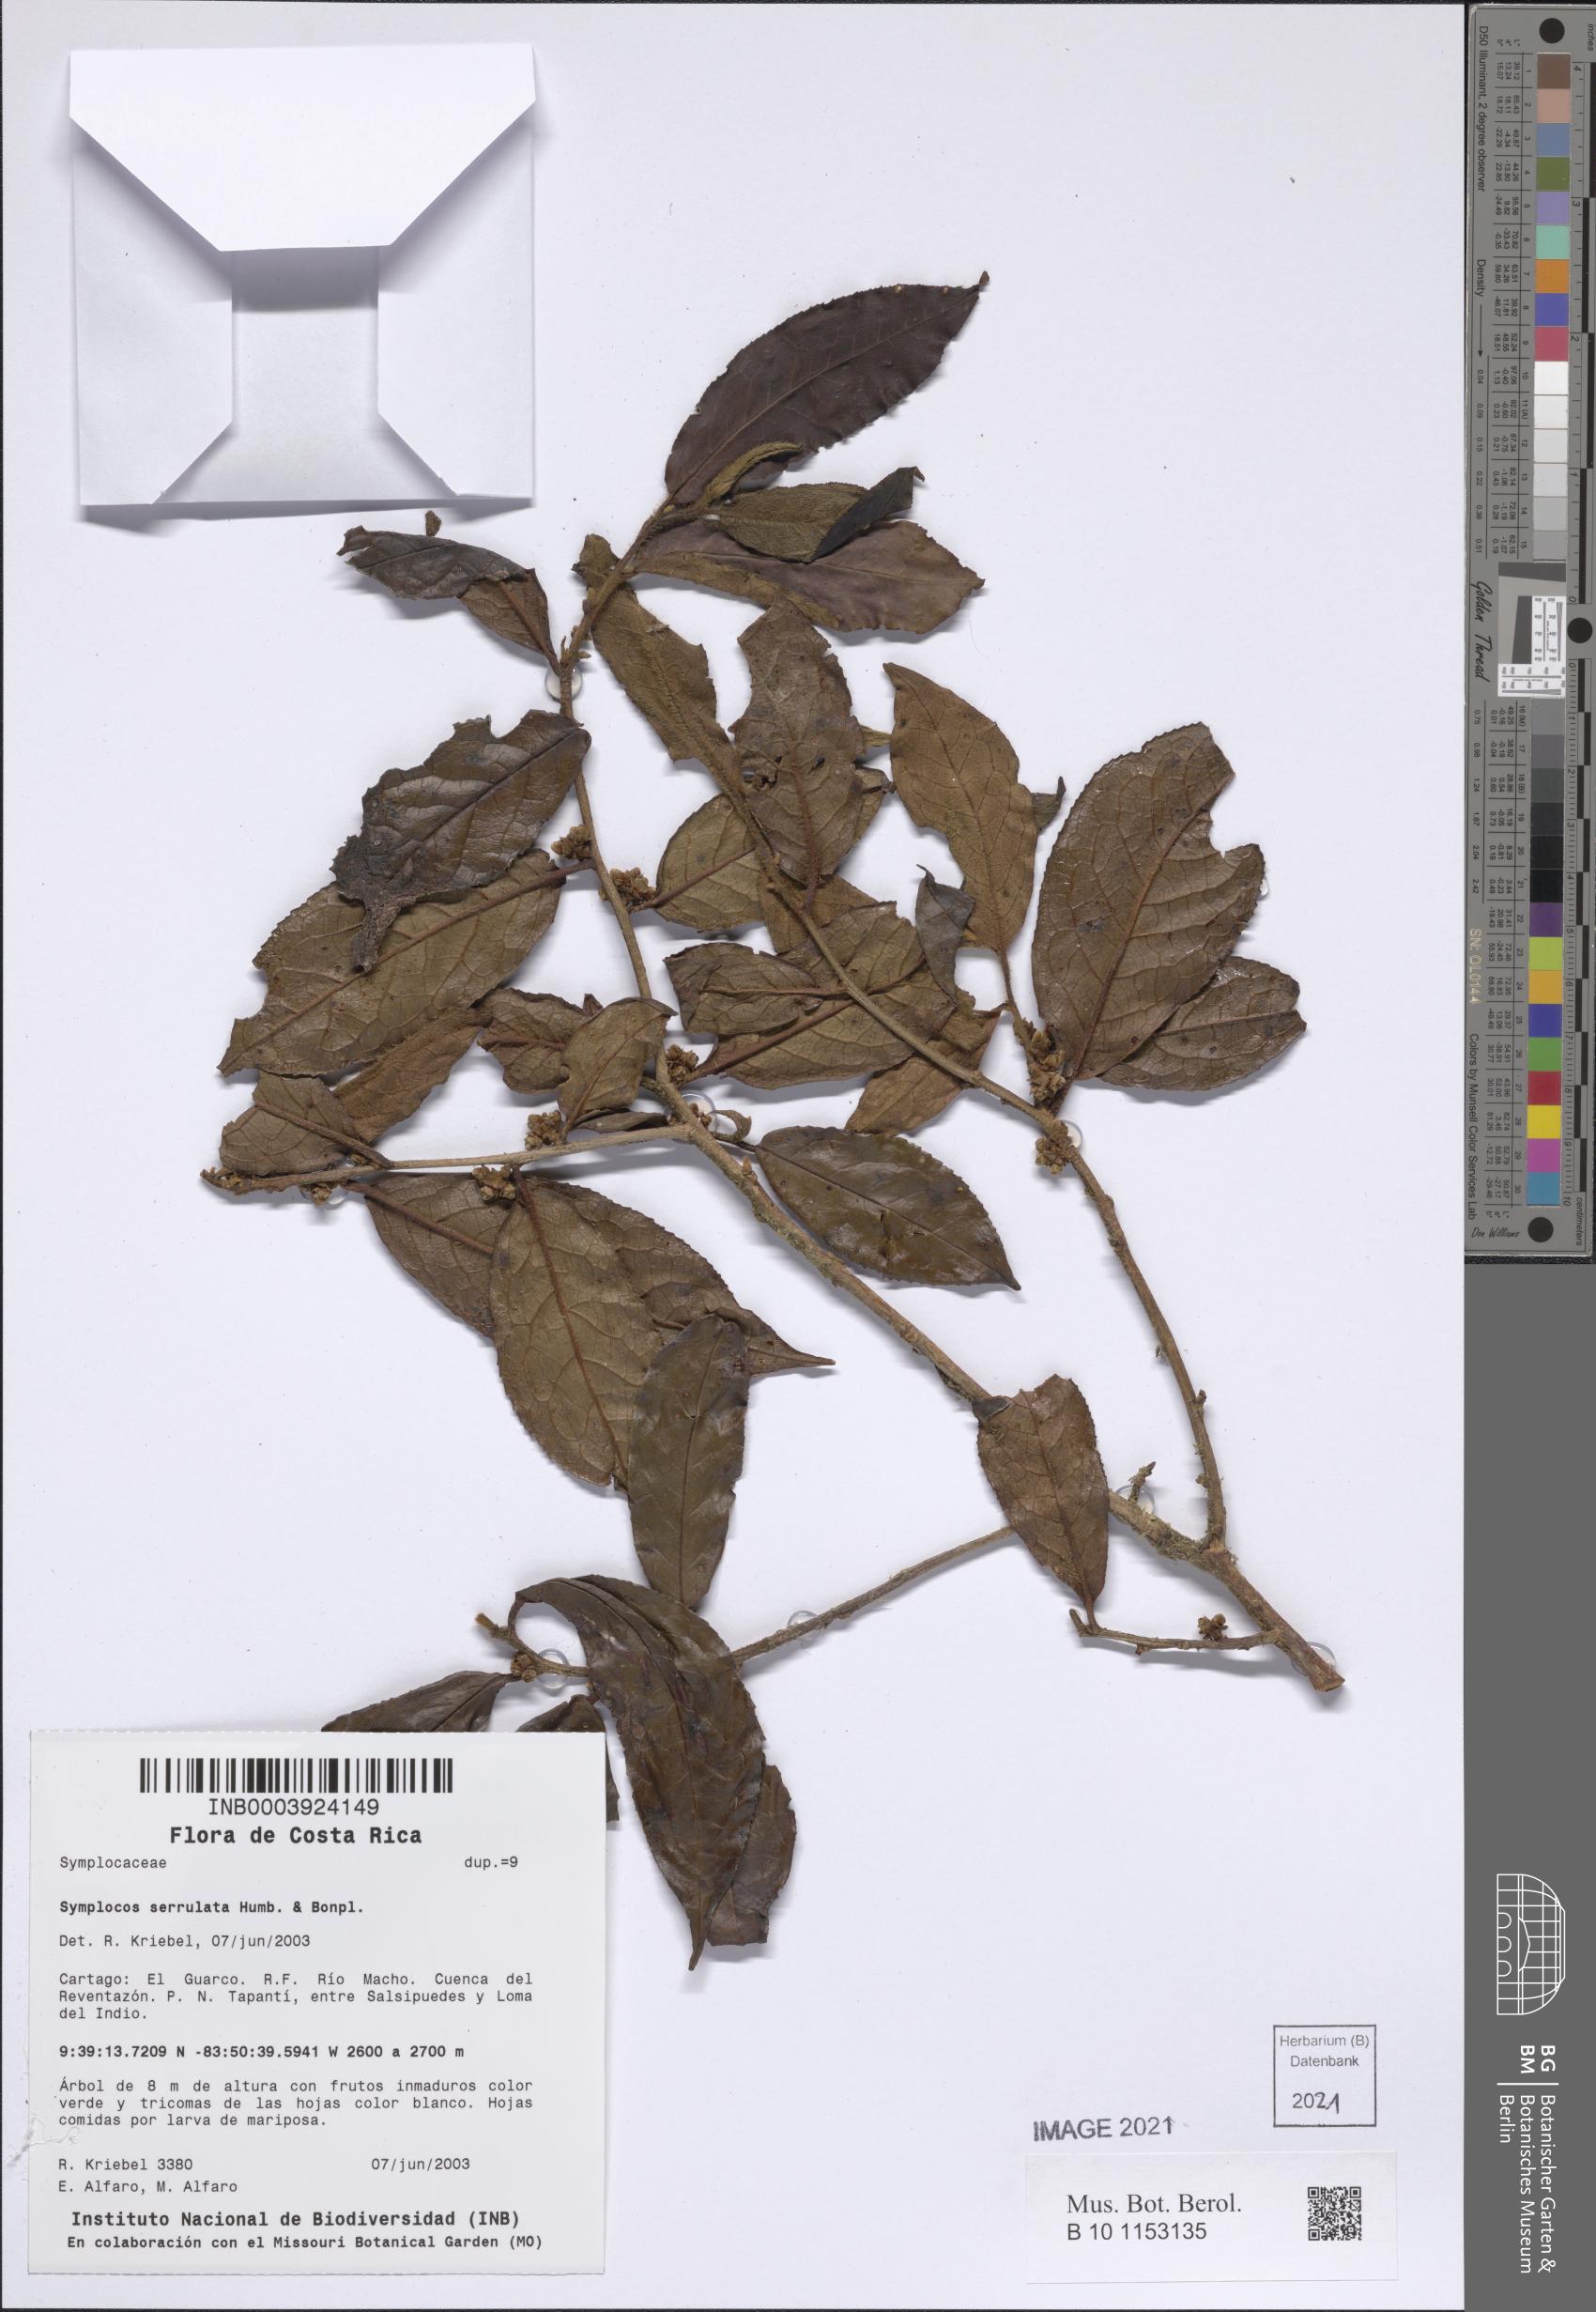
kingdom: Plantae
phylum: Tracheophyta
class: Magnoliopsida
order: Ericales
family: Symplocaceae
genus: Symplocos
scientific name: Symplocos serrulata
